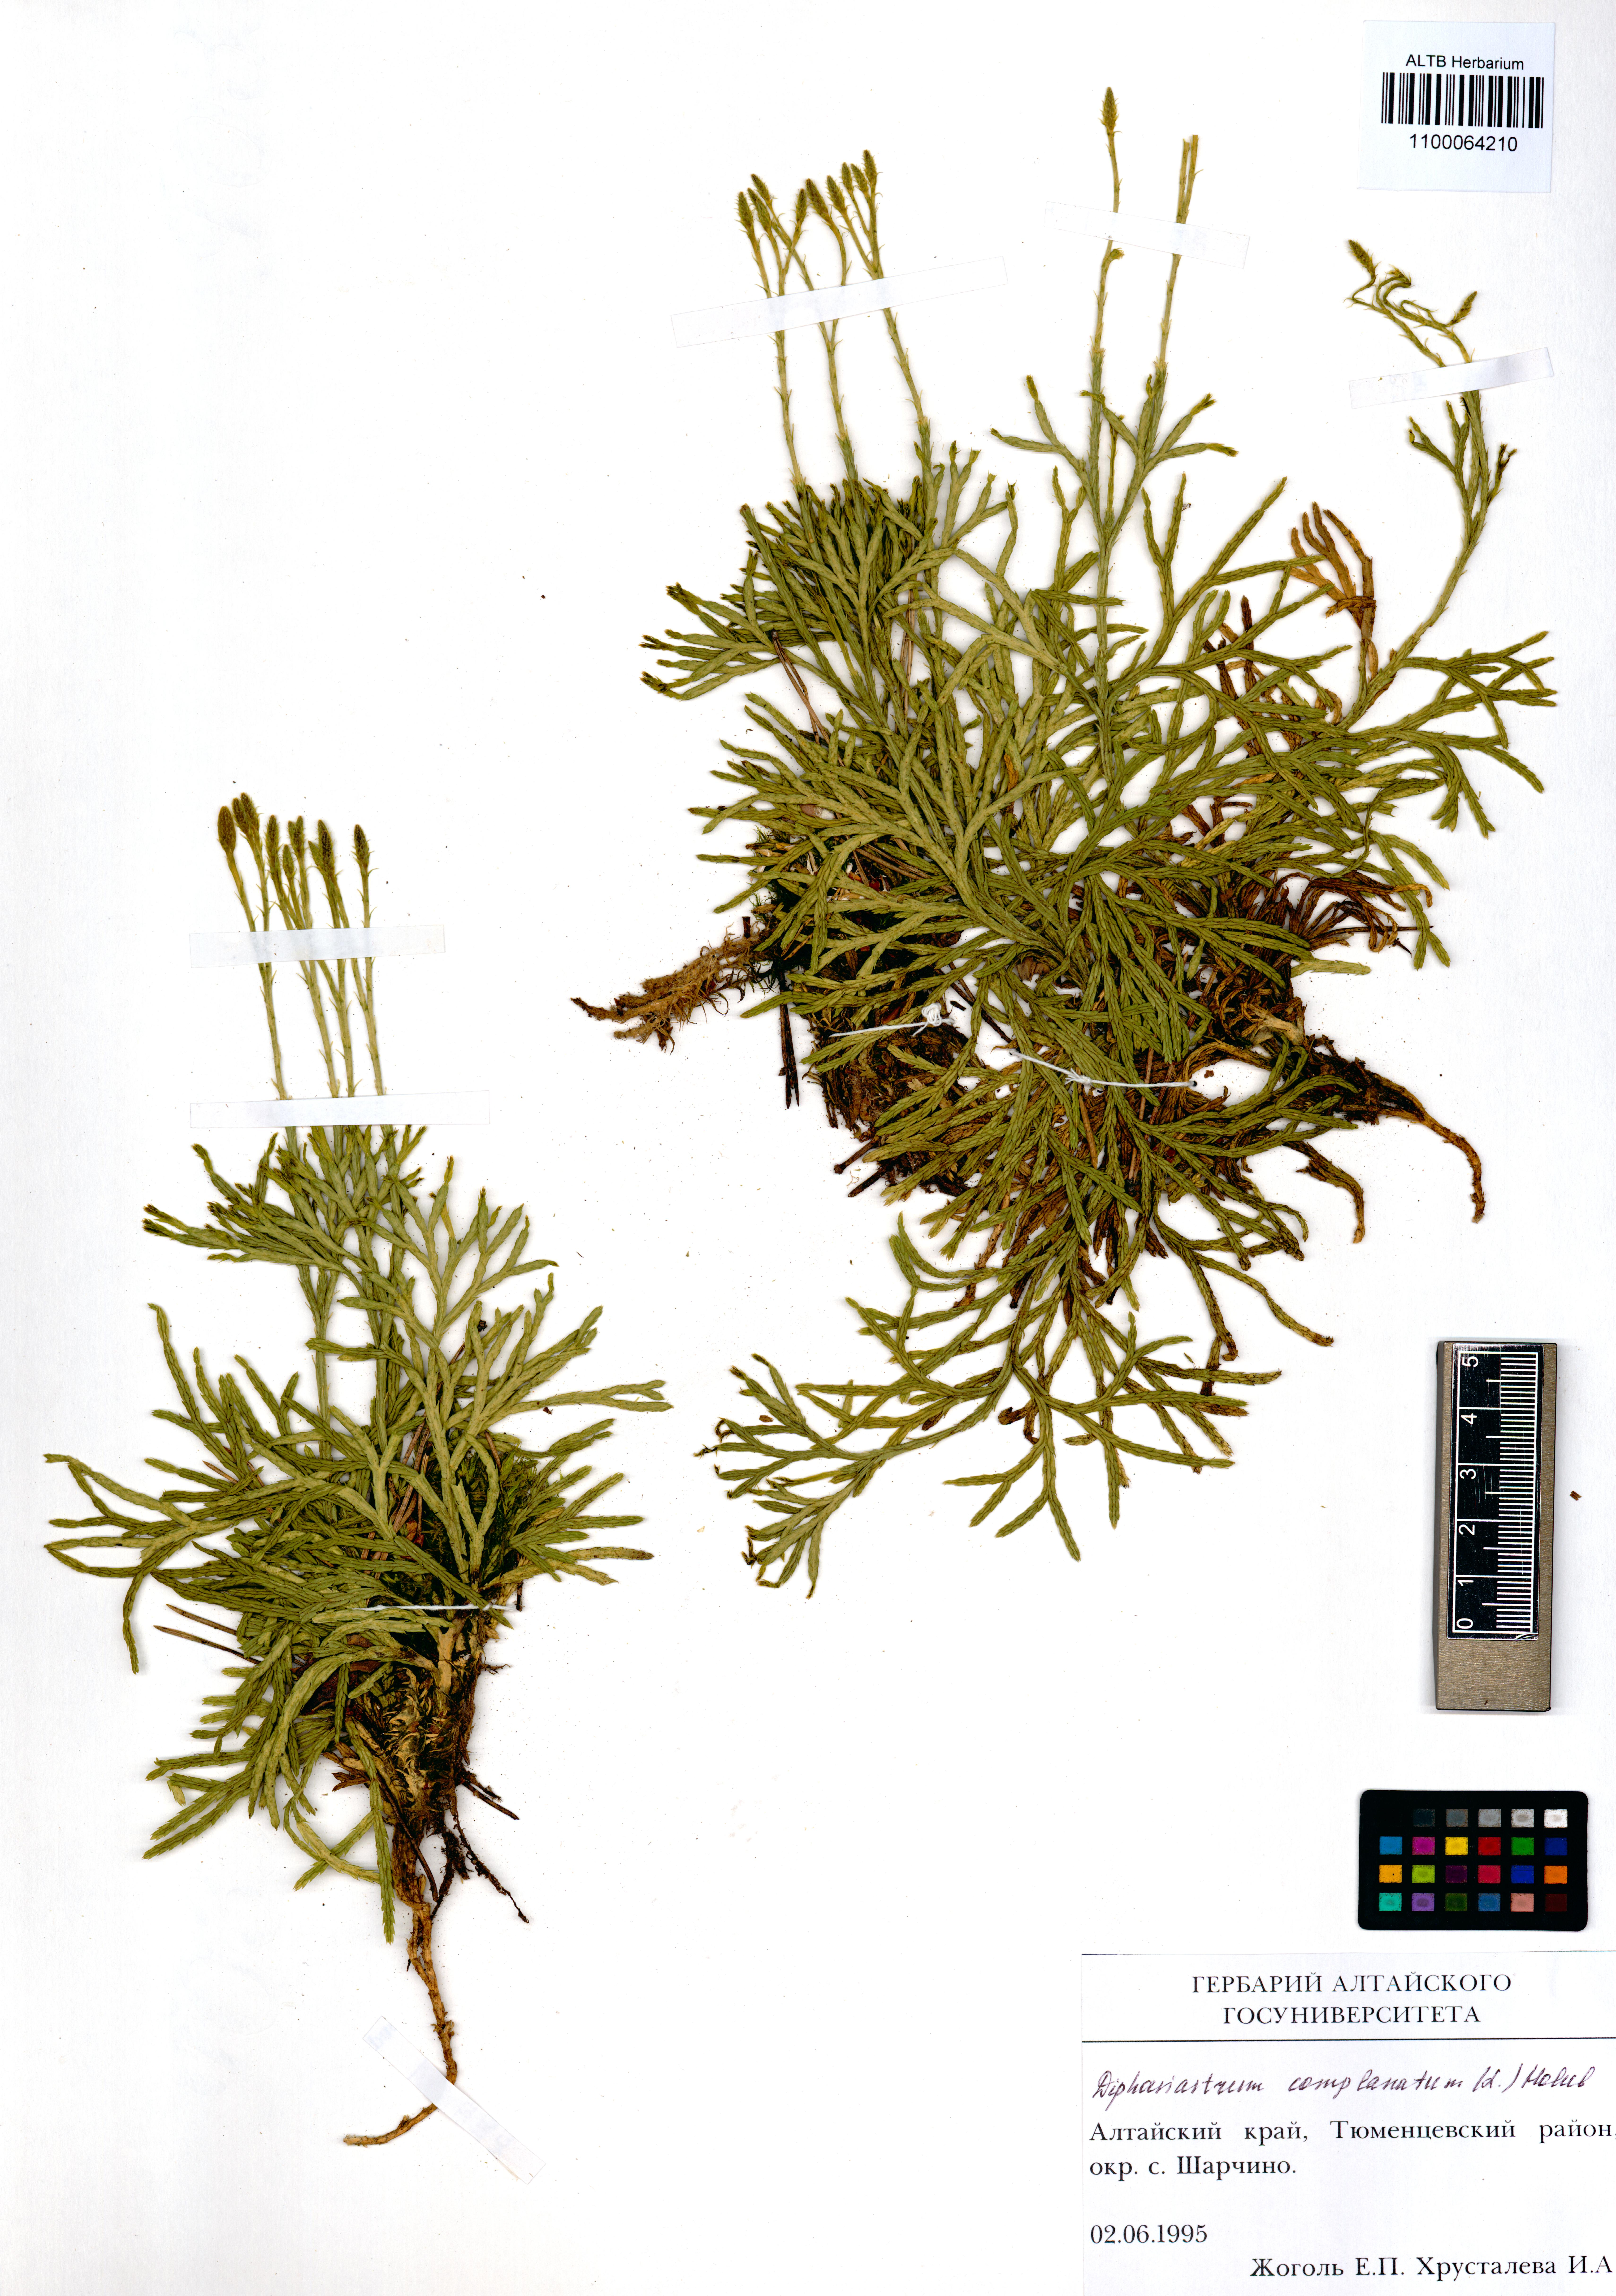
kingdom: Plantae
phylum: Tracheophyta
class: Lycopodiopsida
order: Lycopodiales
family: Lycopodiaceae
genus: Diphasiastrum
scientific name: Diphasiastrum complanatum
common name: Northern running-pine
